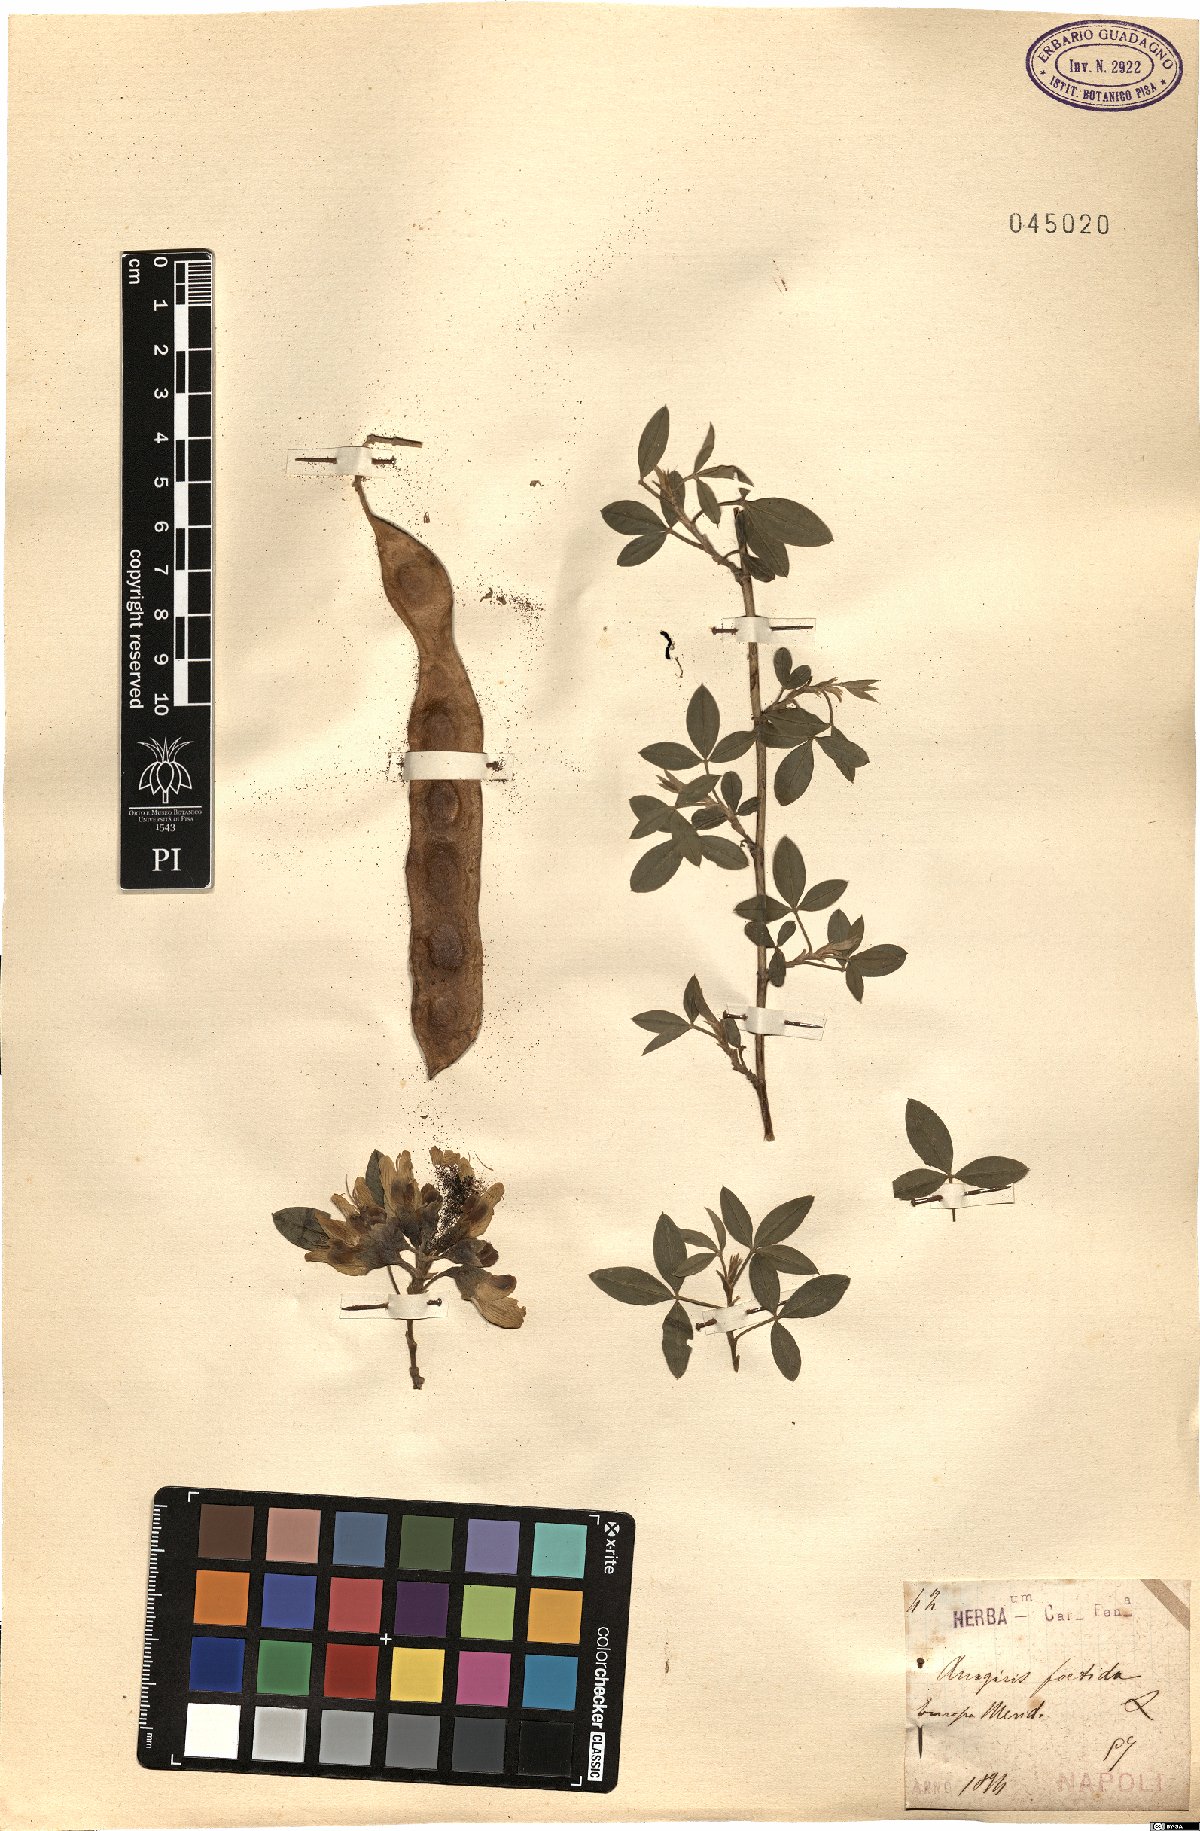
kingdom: Plantae
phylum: Tracheophyta
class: Magnoliopsida
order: Fabales
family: Fabaceae
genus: Anagyris
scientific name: Anagyris foetida
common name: Stinking bean trefoil
